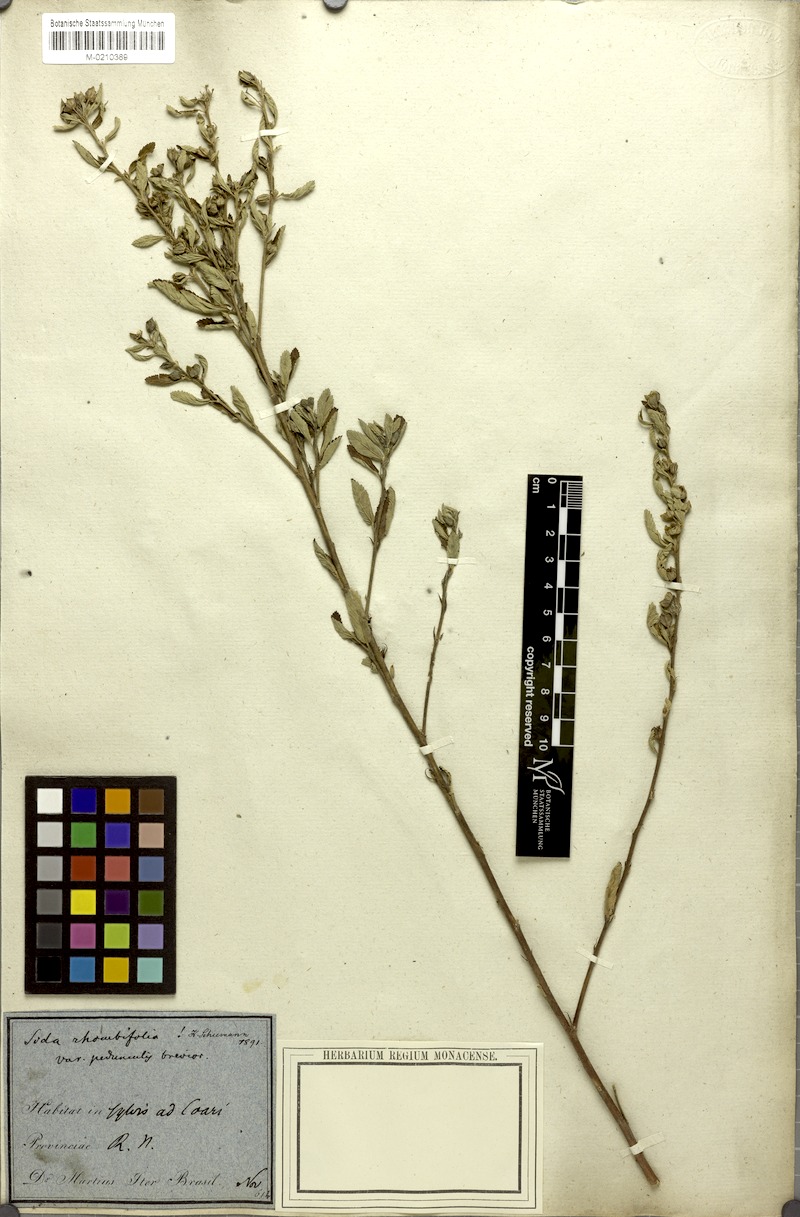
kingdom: Plantae
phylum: Tracheophyta
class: Magnoliopsida
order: Malvales
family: Malvaceae
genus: Sida
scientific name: Sida rhombifolia
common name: Queensland-hemp
